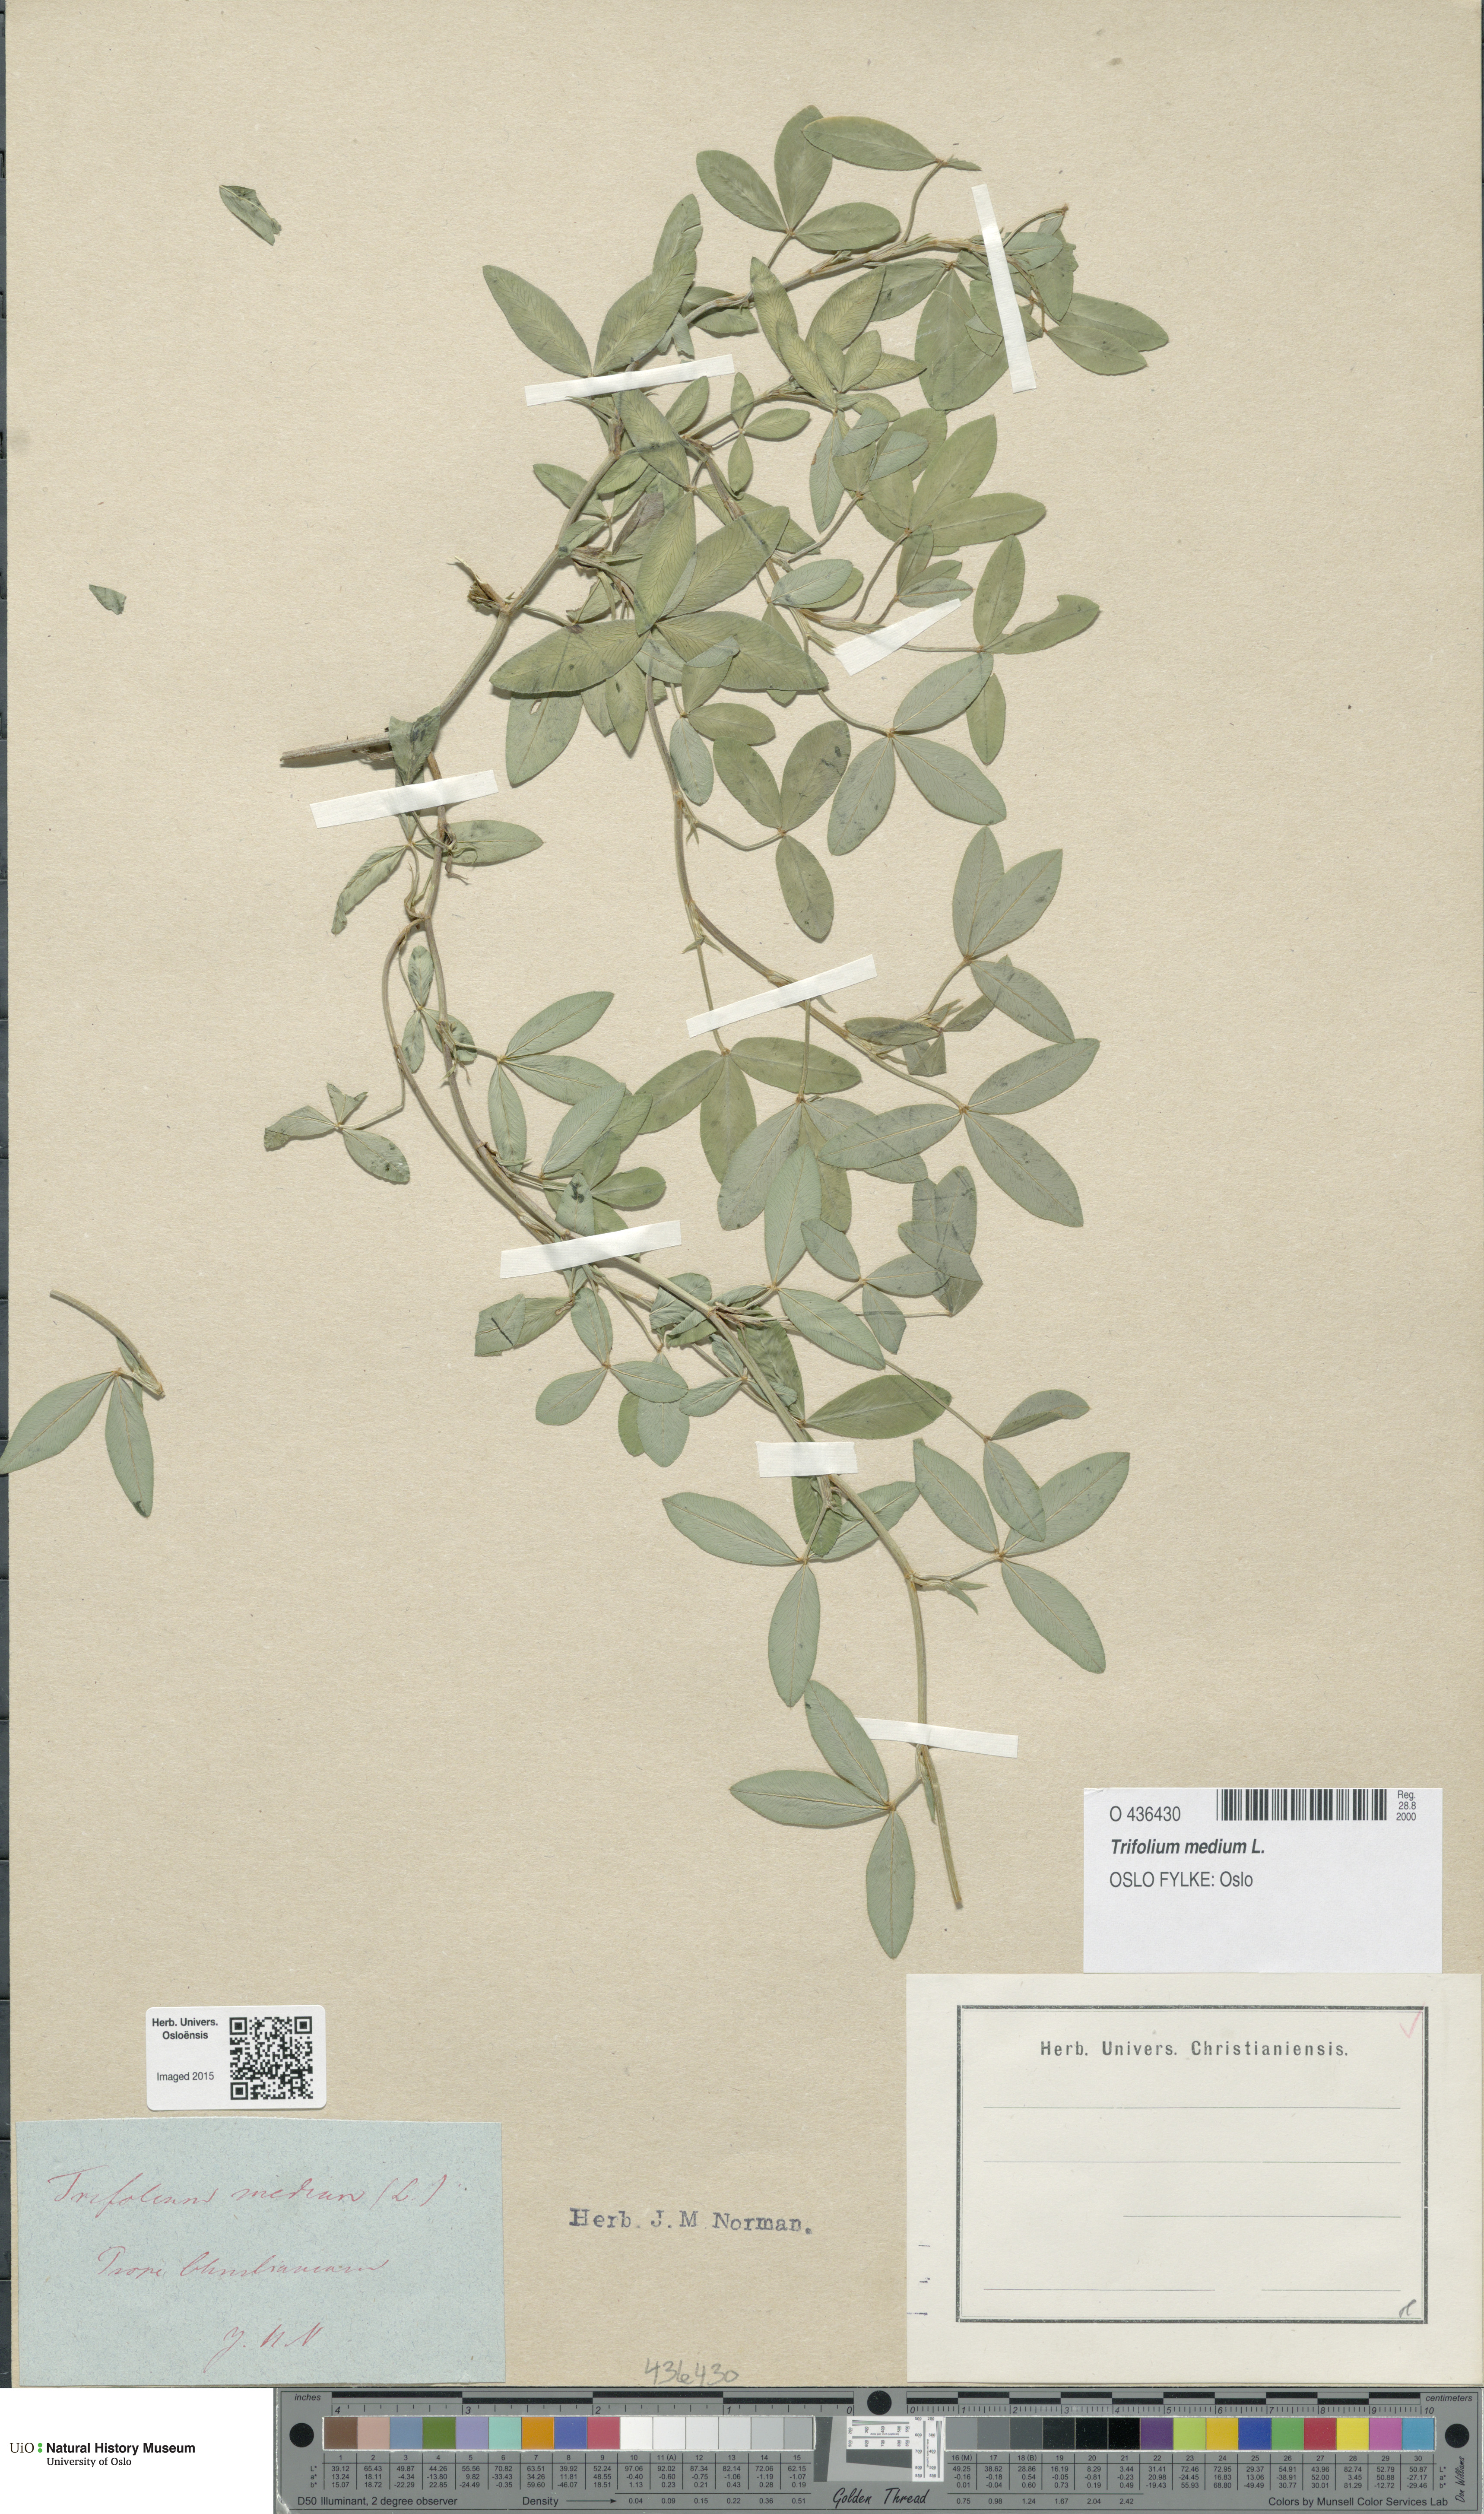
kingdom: Plantae
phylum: Tracheophyta
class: Magnoliopsida
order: Fabales
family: Fabaceae
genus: Trifolium
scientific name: Trifolium medium
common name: Zigzag clover
